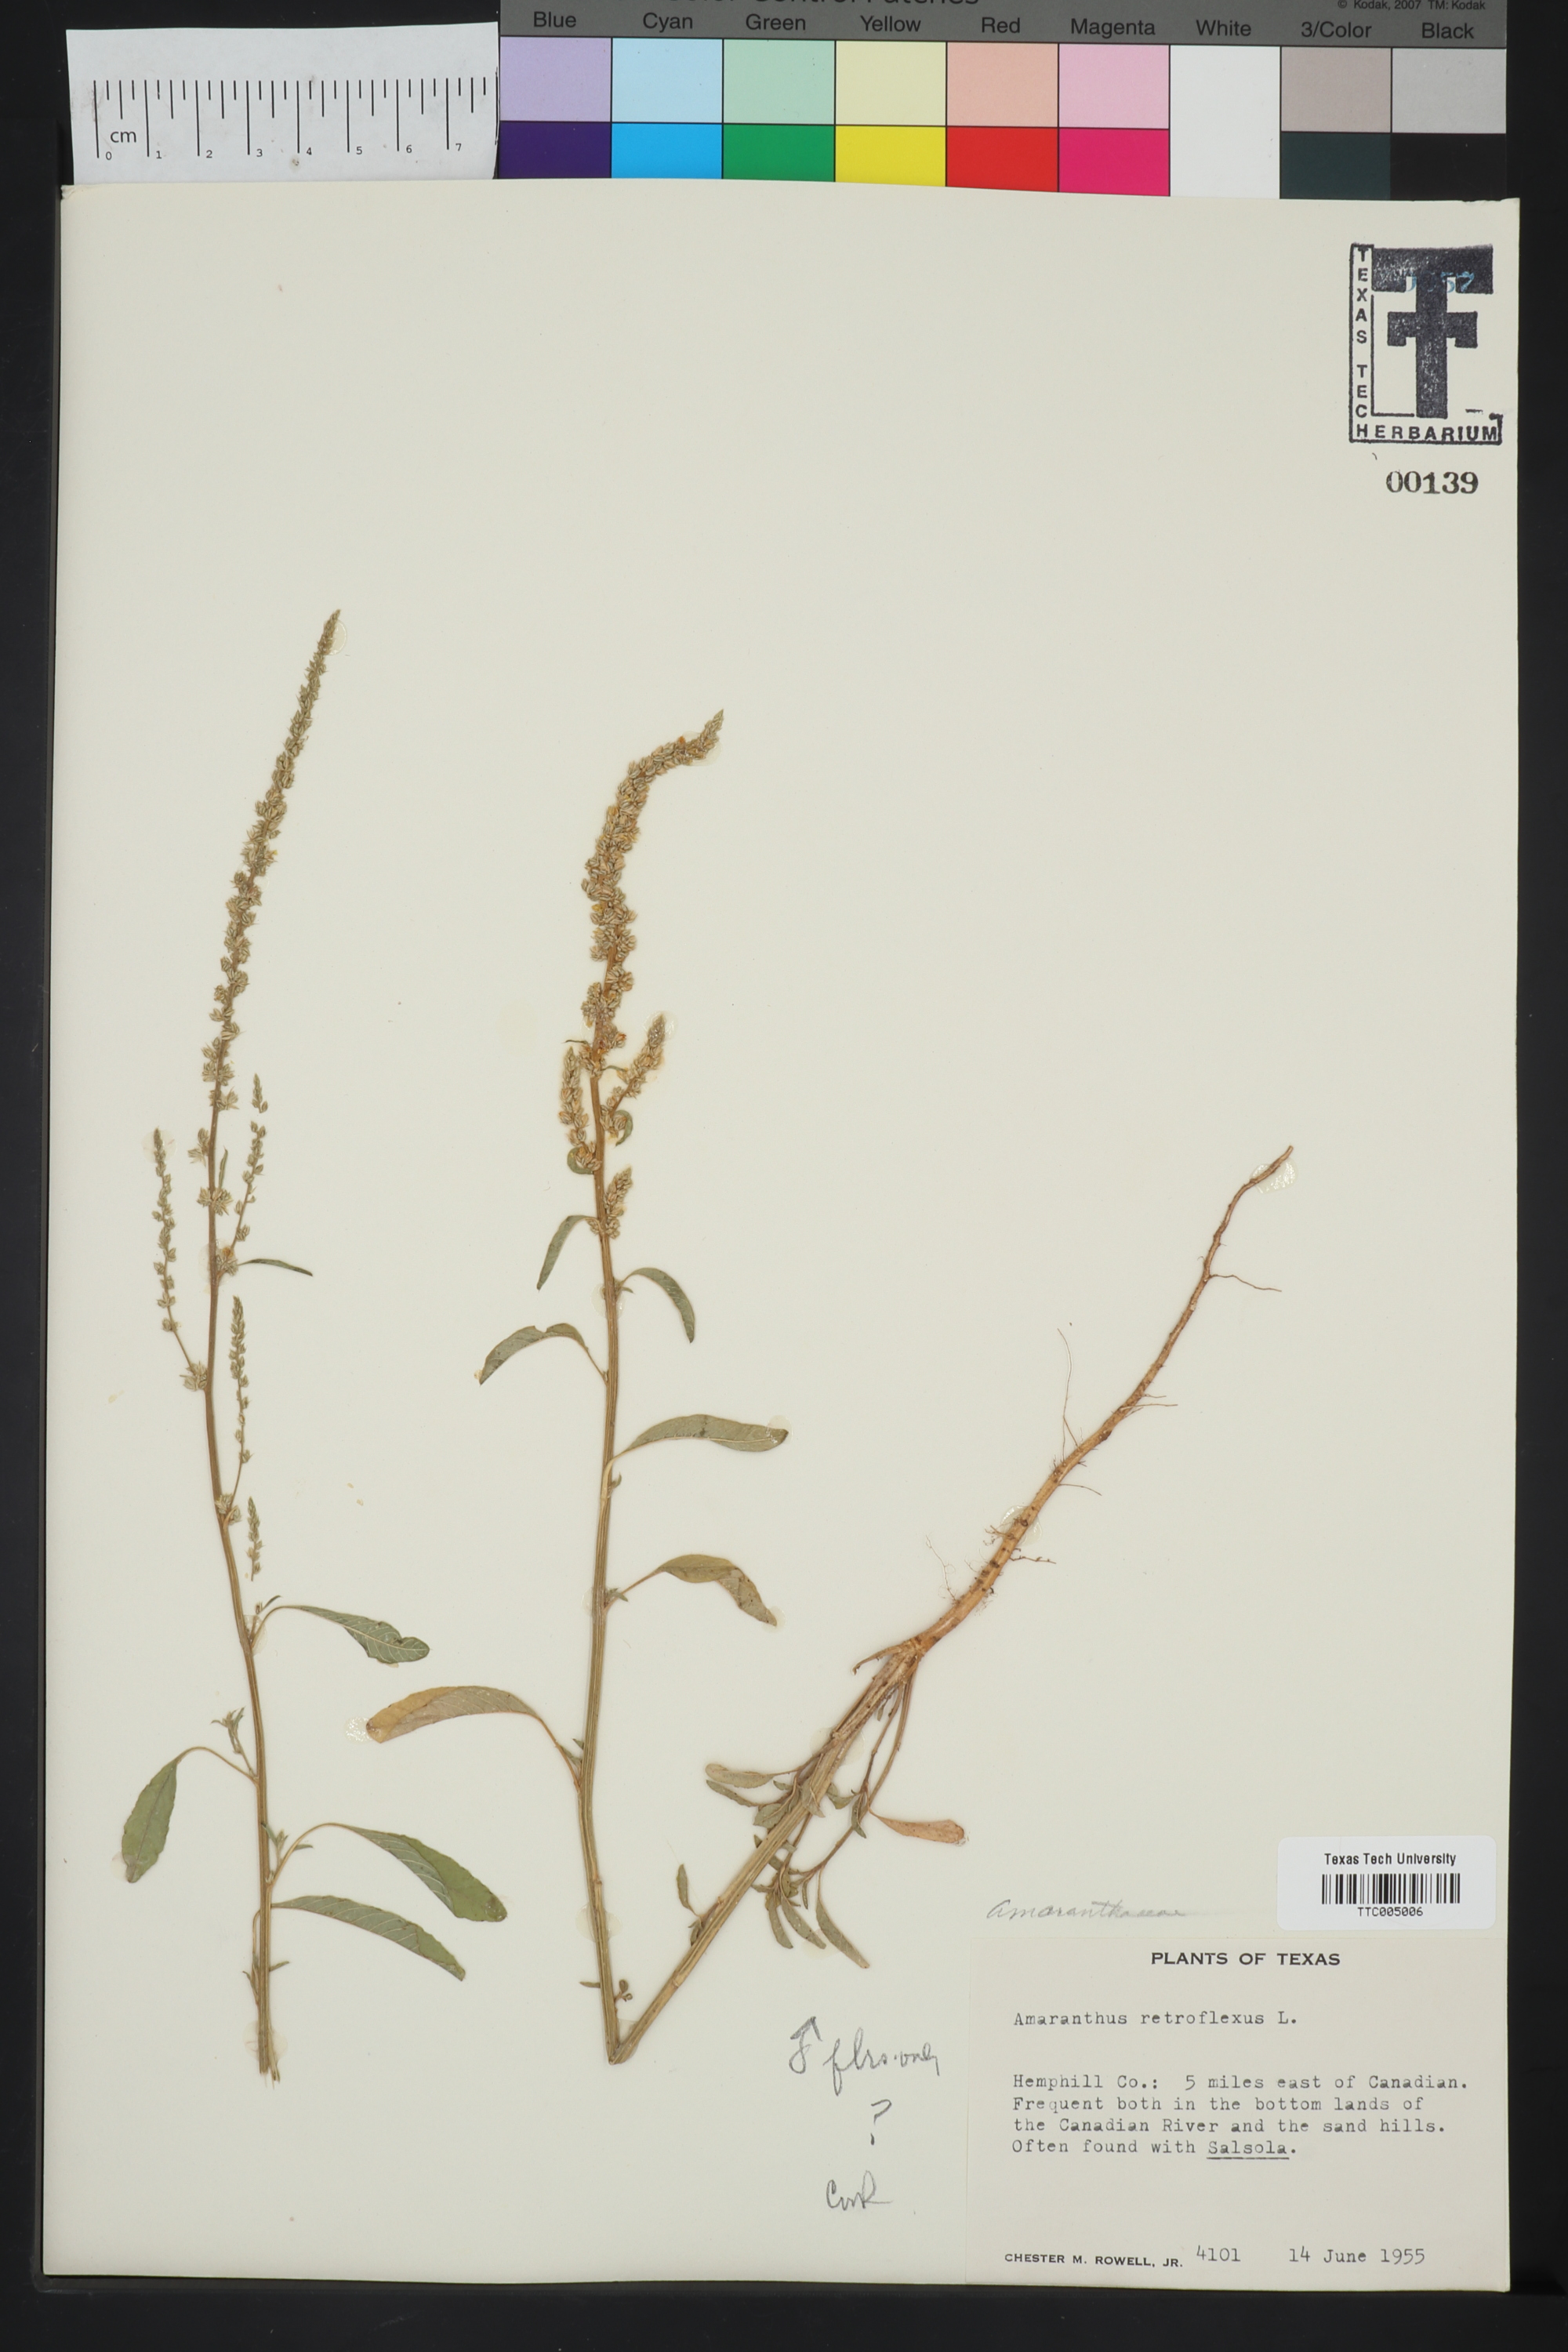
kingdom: Plantae
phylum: Tracheophyta
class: Magnoliopsida
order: Caryophyllales
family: Amaranthaceae
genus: Amaranthus
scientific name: Amaranthus retroflexus
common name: Redroot amaranth
